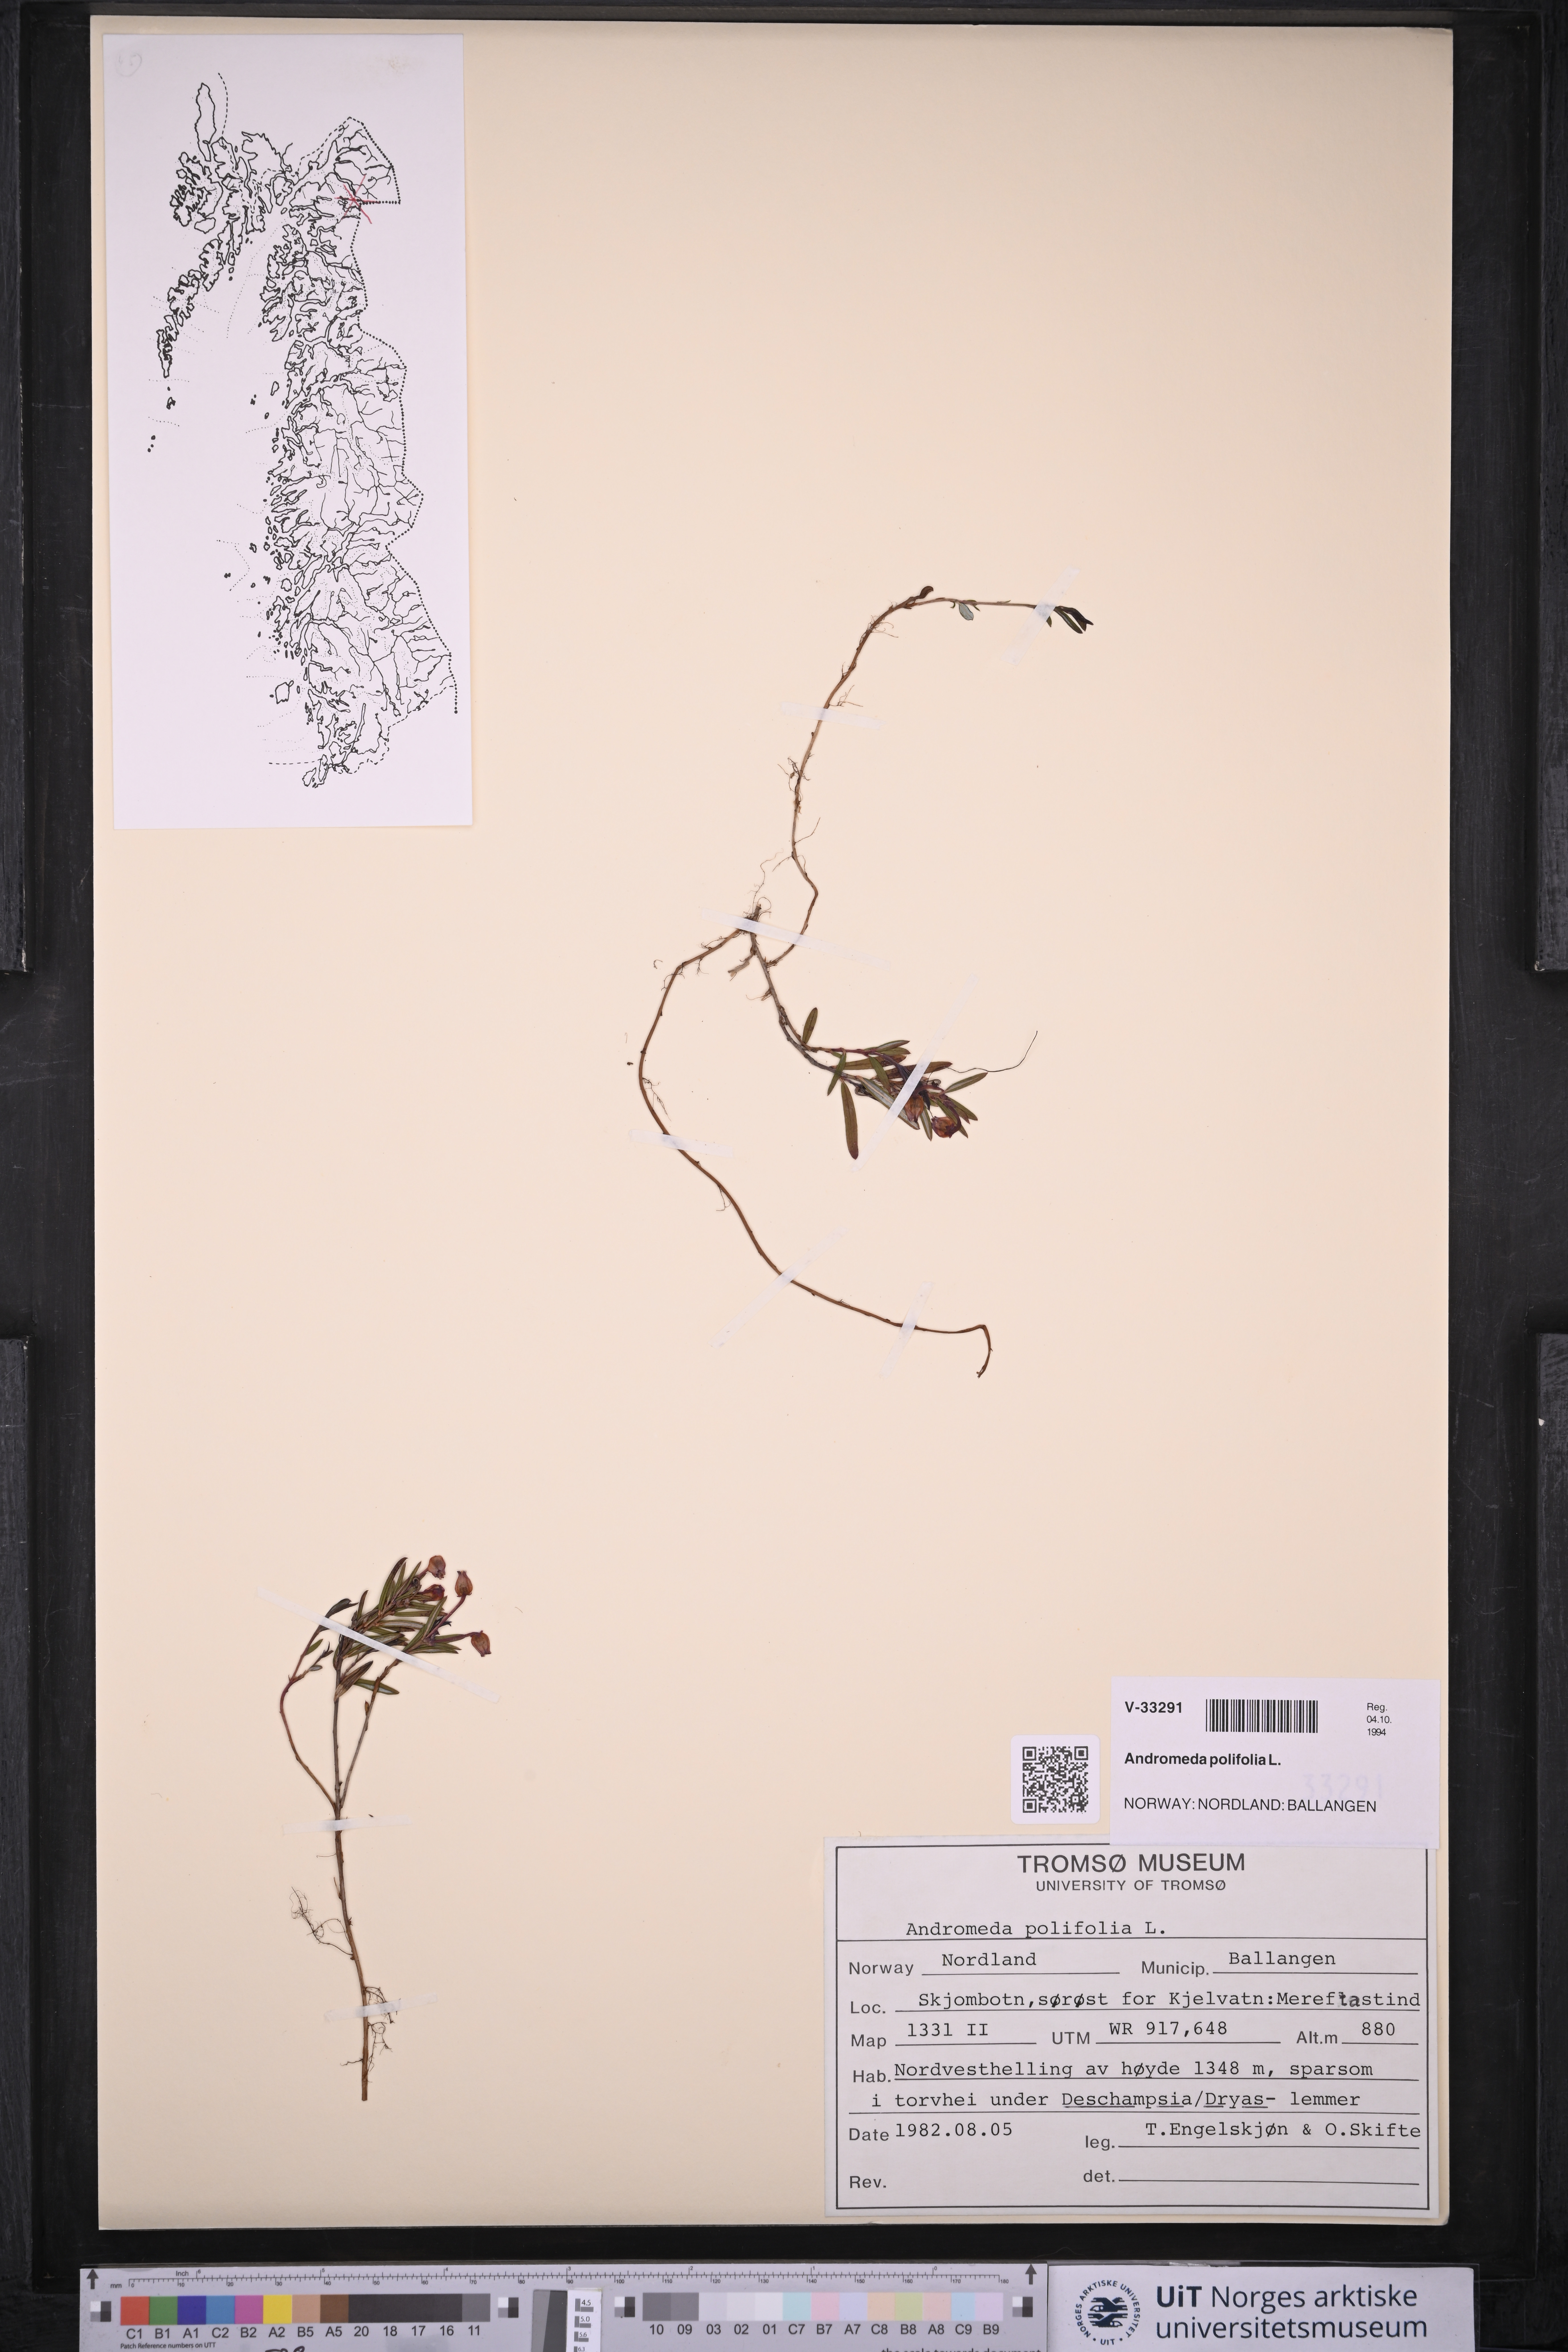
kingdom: Plantae
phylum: Tracheophyta
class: Magnoliopsida
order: Ericales
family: Ericaceae
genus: Andromeda
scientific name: Andromeda polifolia
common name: Bog-rosemary
